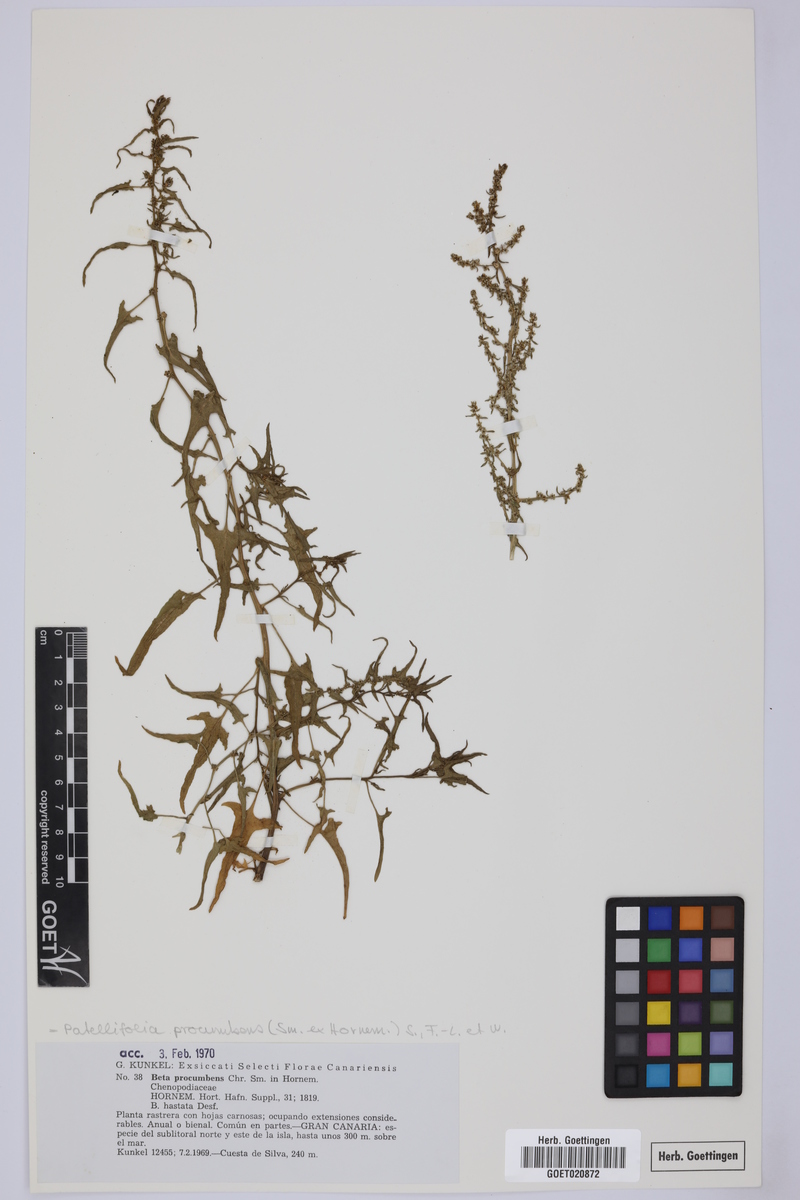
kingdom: Plantae
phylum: Tracheophyta
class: Magnoliopsida
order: Caryophyllales
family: Amaranthaceae
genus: Patellifolia
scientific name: Patellifolia procumbens
